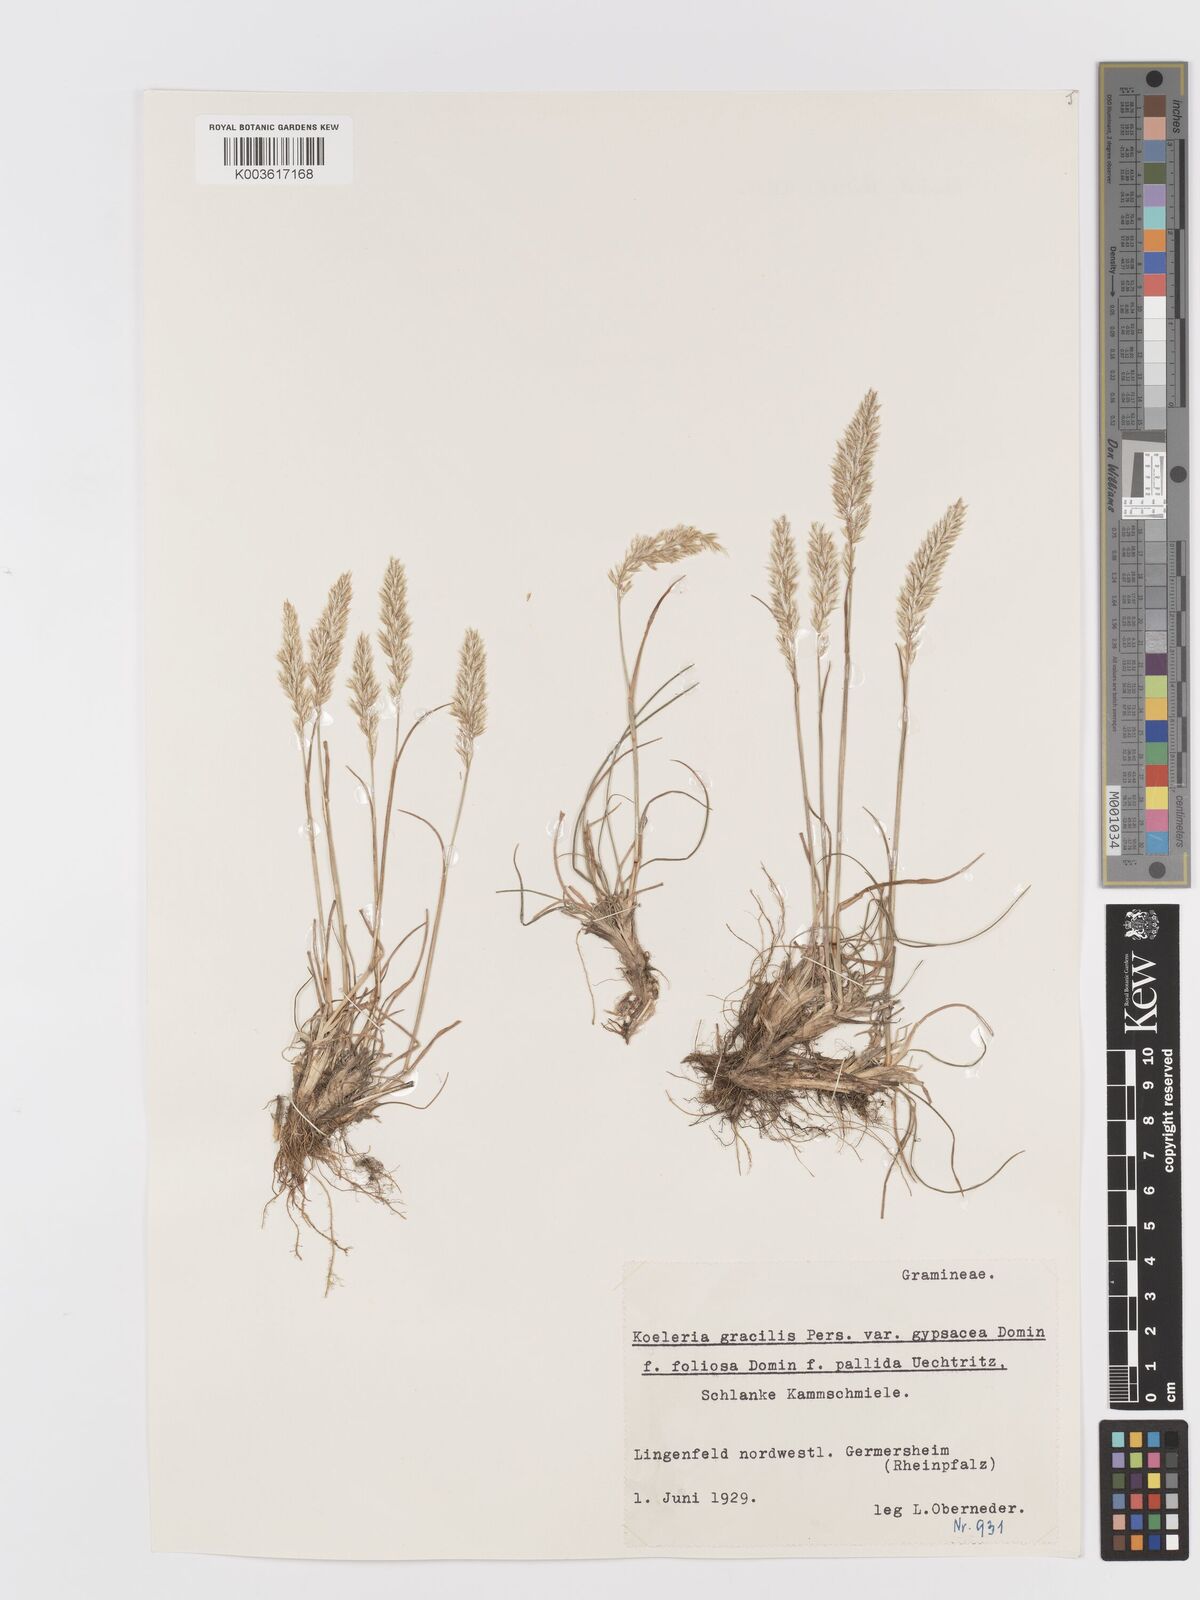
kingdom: Plantae
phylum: Tracheophyta
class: Liliopsida
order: Poales
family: Poaceae
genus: Koeleria
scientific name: Koeleria macrantha
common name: Crested hair-grass
